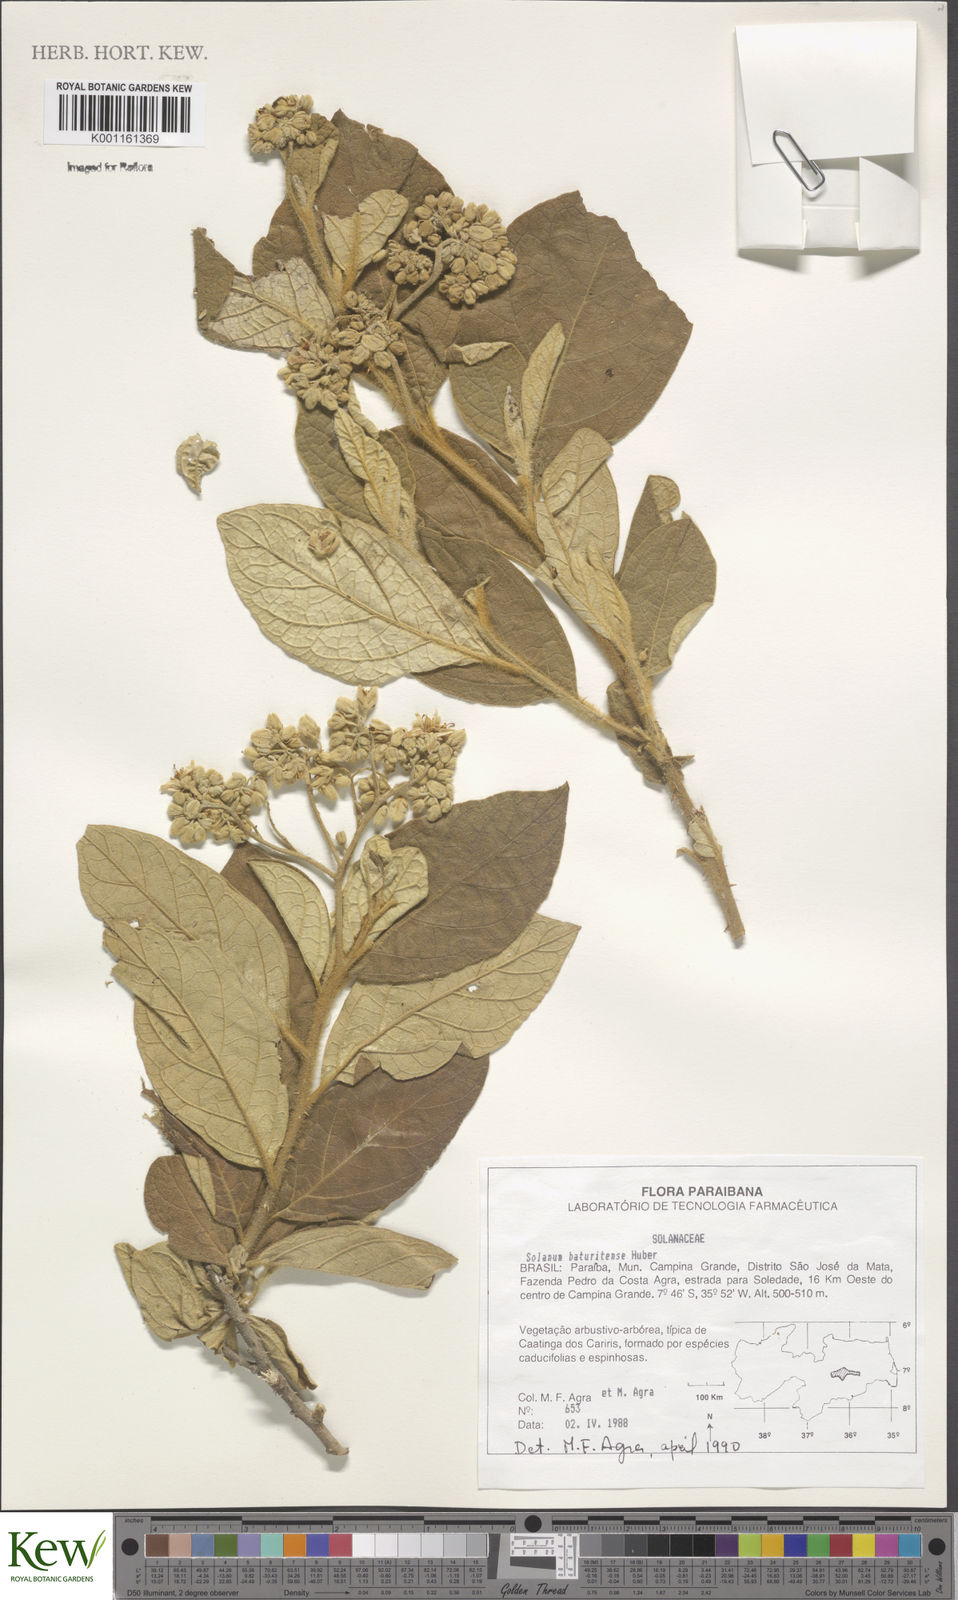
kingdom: Plantae
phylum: Tracheophyta
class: Magnoliopsida
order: Solanales
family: Solanaceae
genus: Solanum
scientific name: Solanum rhytidoandrum
